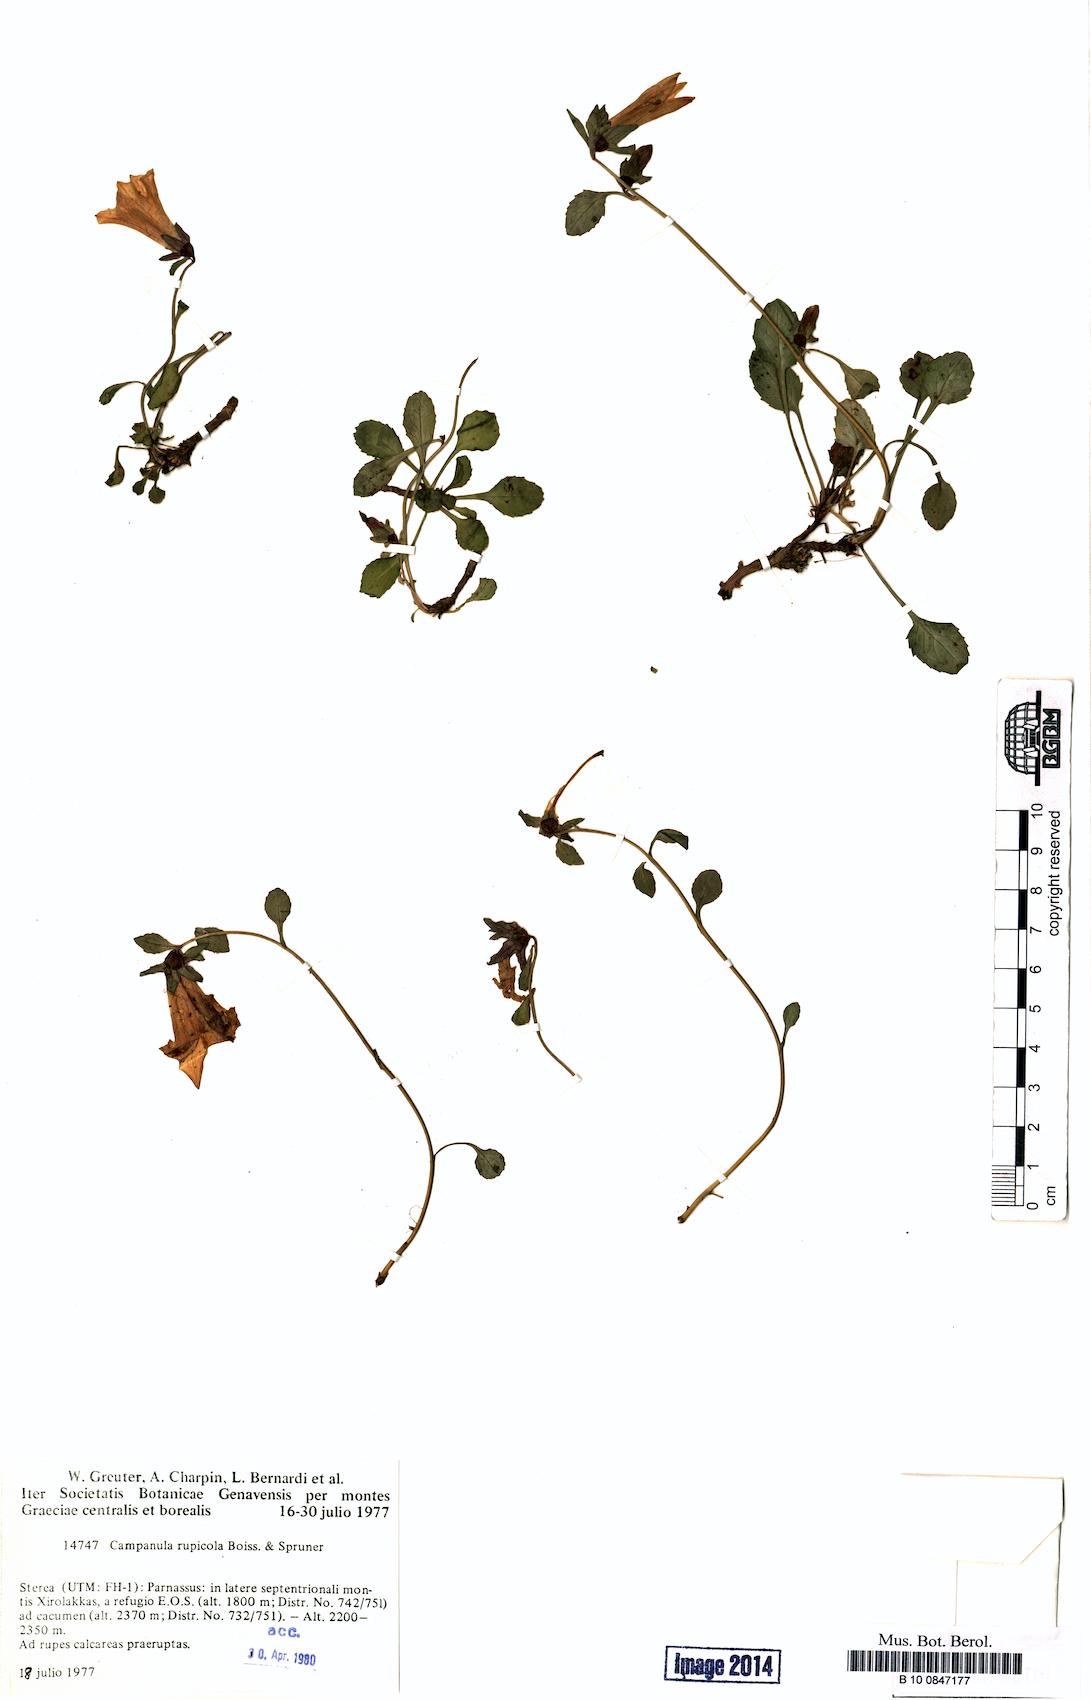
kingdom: Plantae
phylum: Tracheophyta
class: Magnoliopsida
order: Asterales
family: Campanulaceae
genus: Campanula
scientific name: Campanula rupicola
